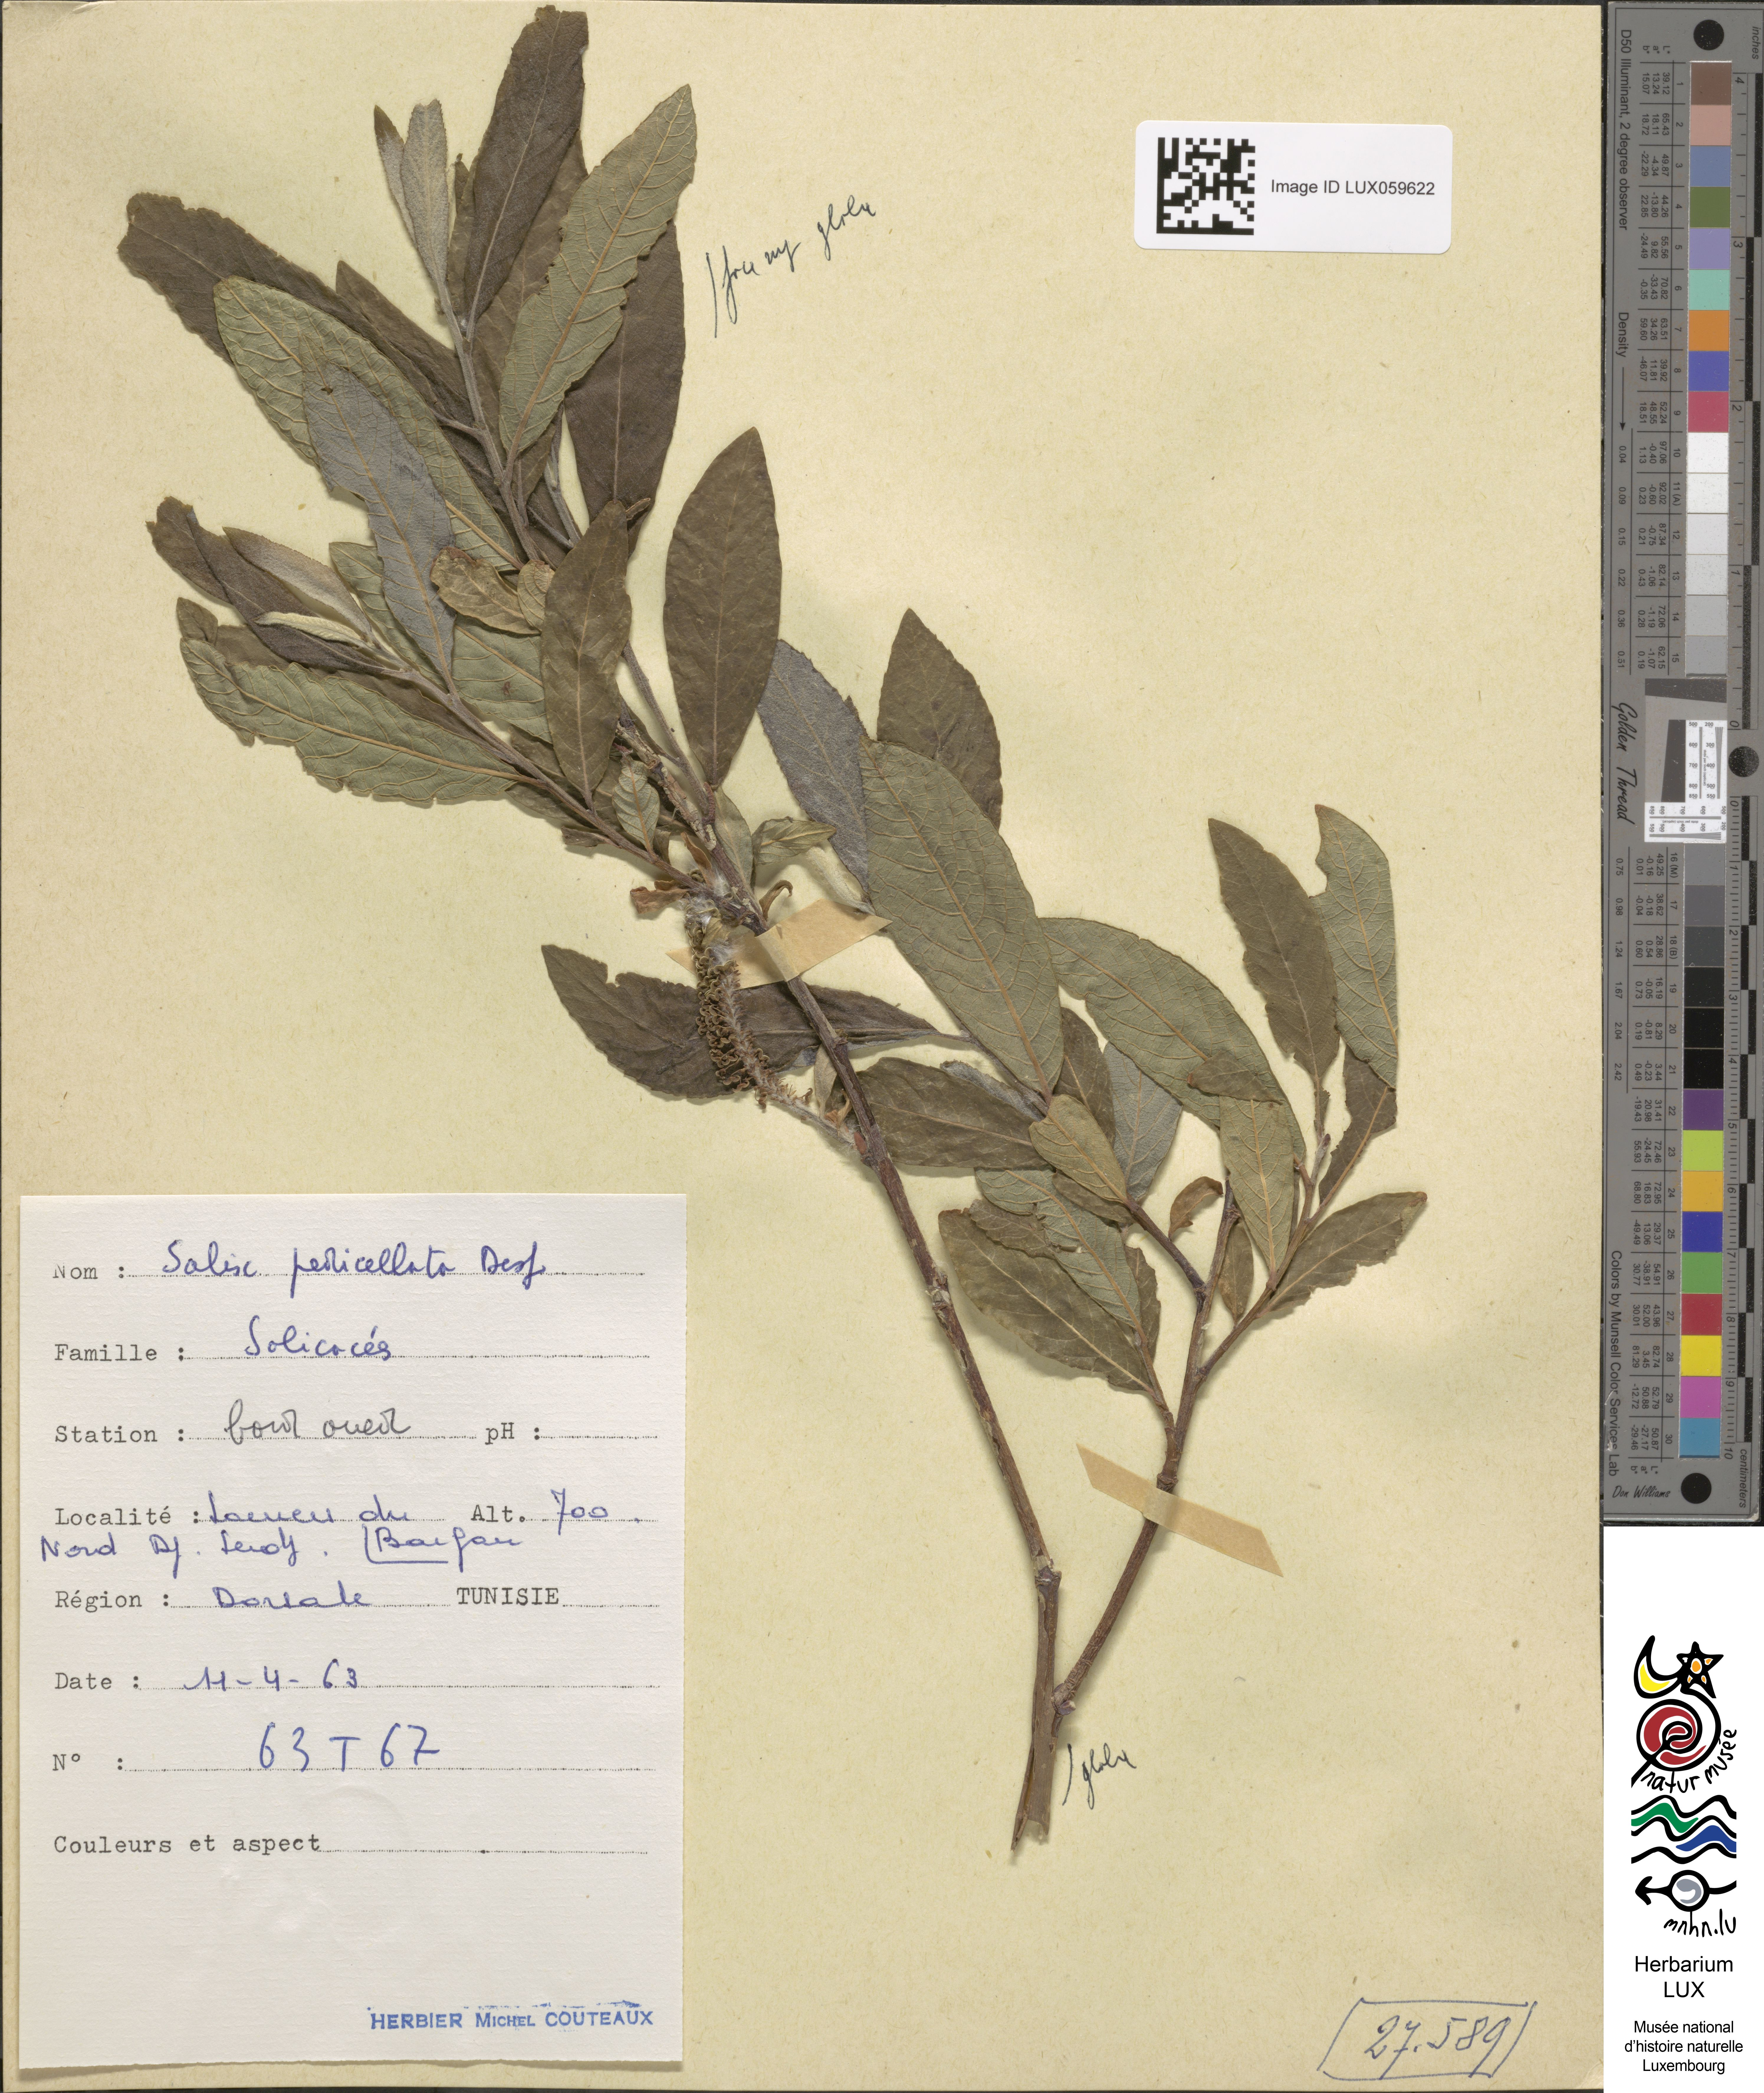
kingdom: Plantae
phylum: Tracheophyta
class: Magnoliopsida
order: Malpighiales
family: Salicaceae
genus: Salix
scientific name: Salix pedicellata
